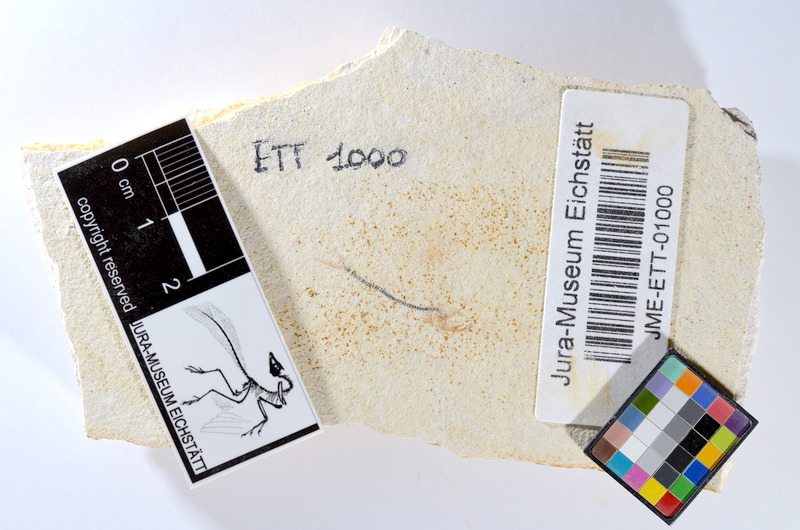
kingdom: Animalia
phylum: Chordata
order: Salmoniformes
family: Orthogonikleithridae
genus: Orthogonikleithrus
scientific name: Orthogonikleithrus hoelli
